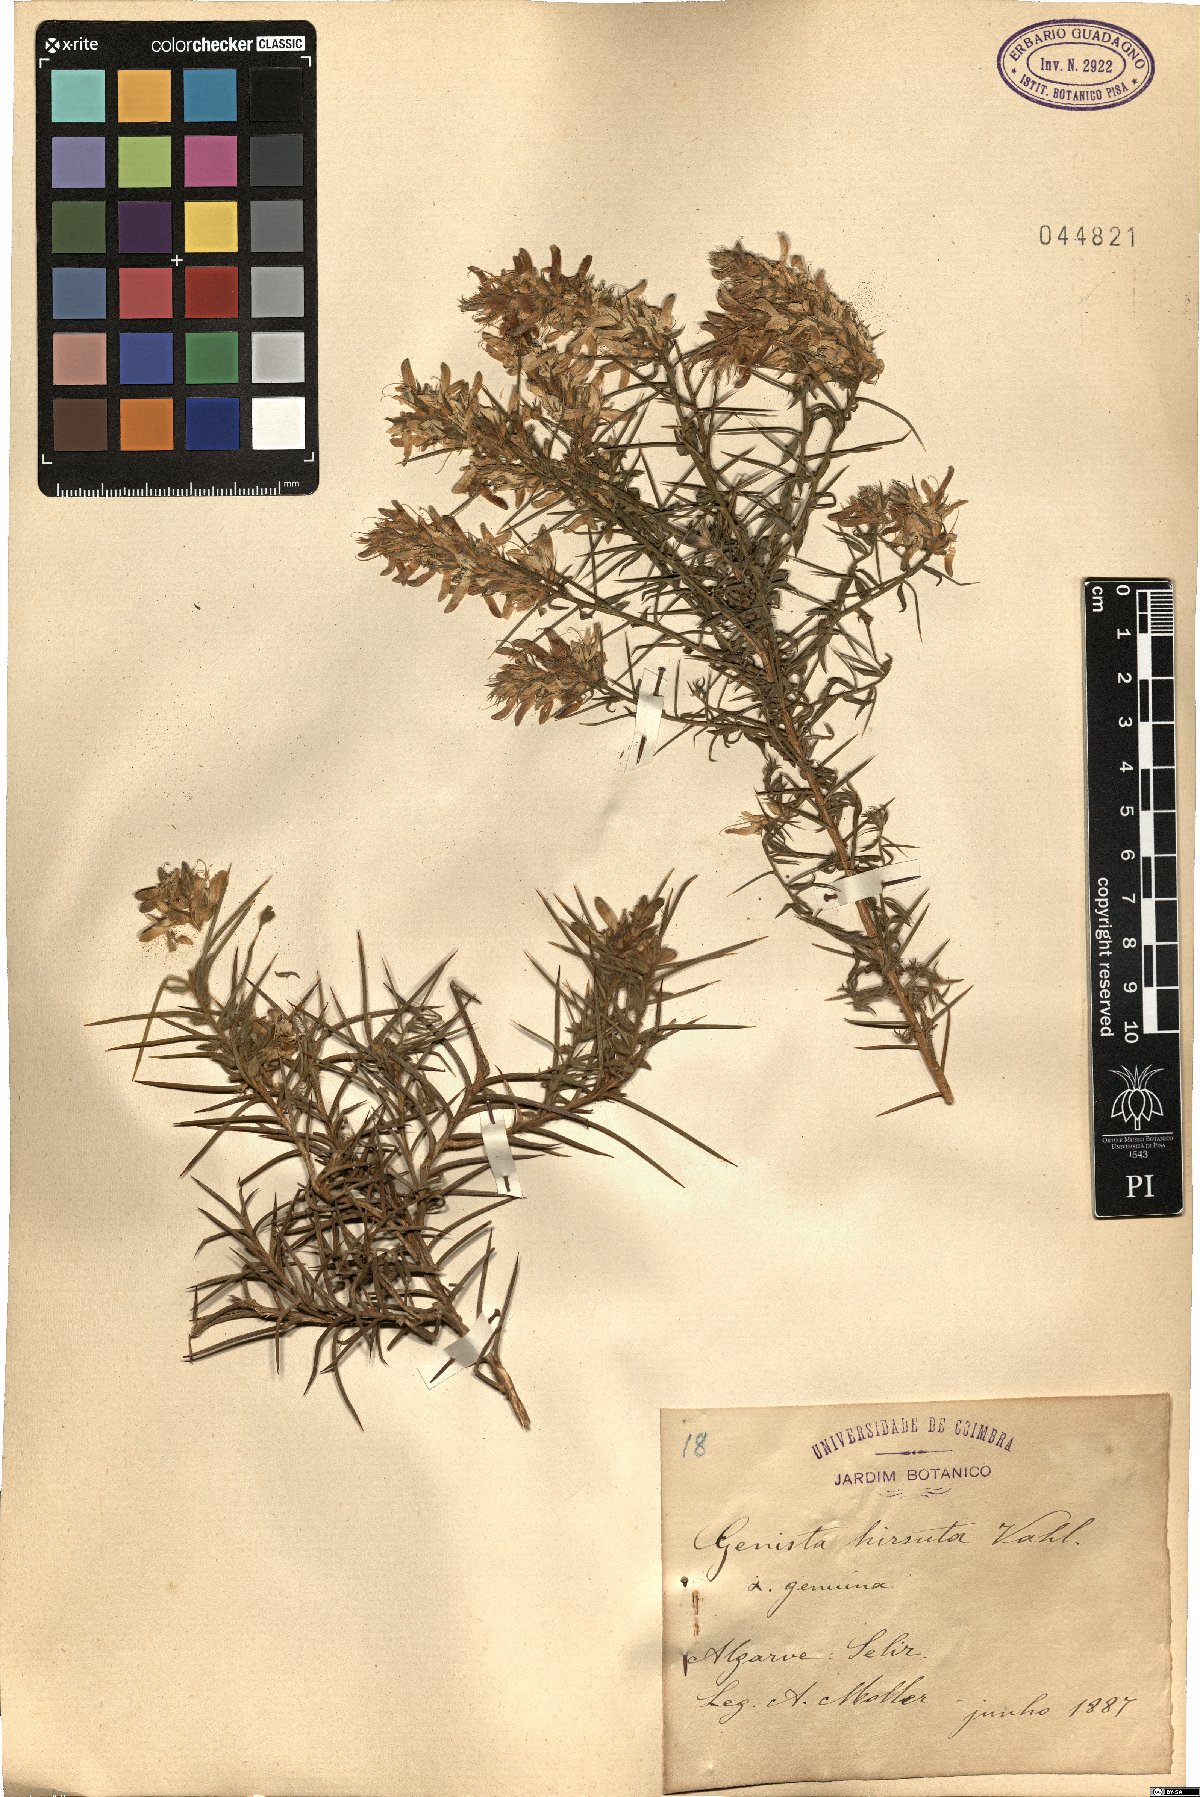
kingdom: Plantae
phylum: Tracheophyta
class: Magnoliopsida
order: Fabales
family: Fabaceae
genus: Genista
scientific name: Genista hirsuta
